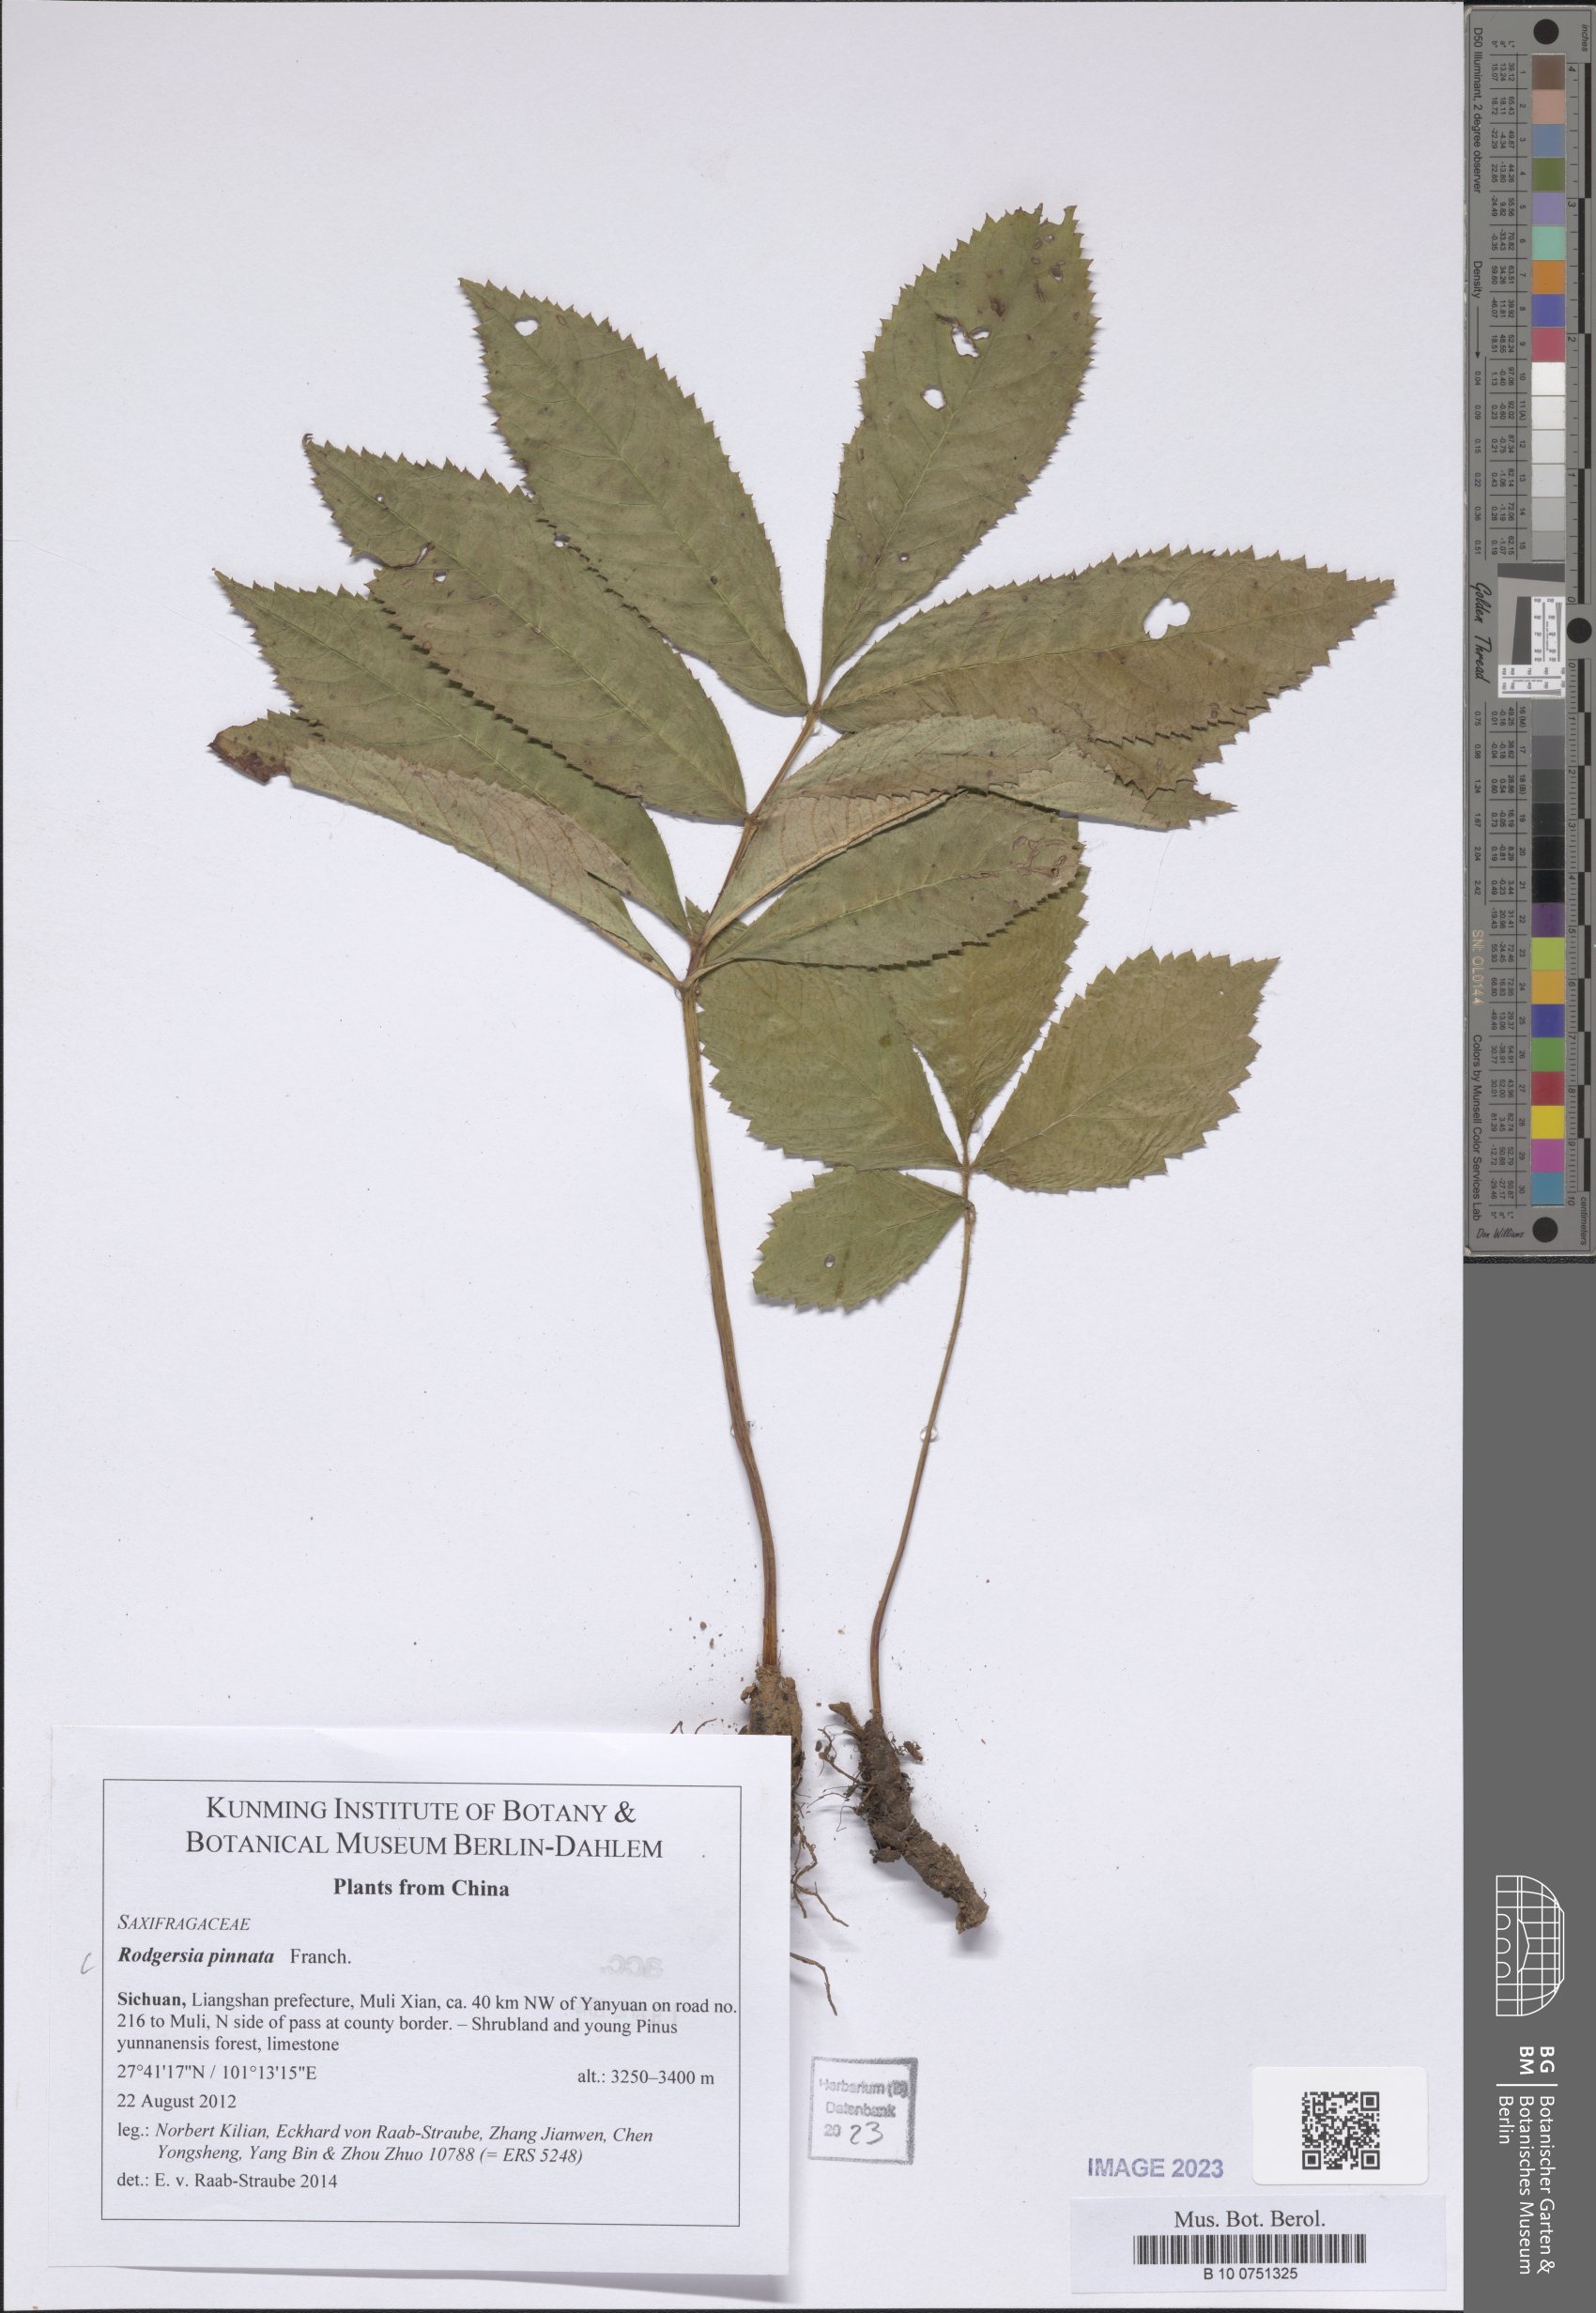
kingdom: Plantae
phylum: Tracheophyta
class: Magnoliopsida
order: Saxifragales
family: Saxifragaceae
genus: Rodgersia
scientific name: Rodgersia pinnata
